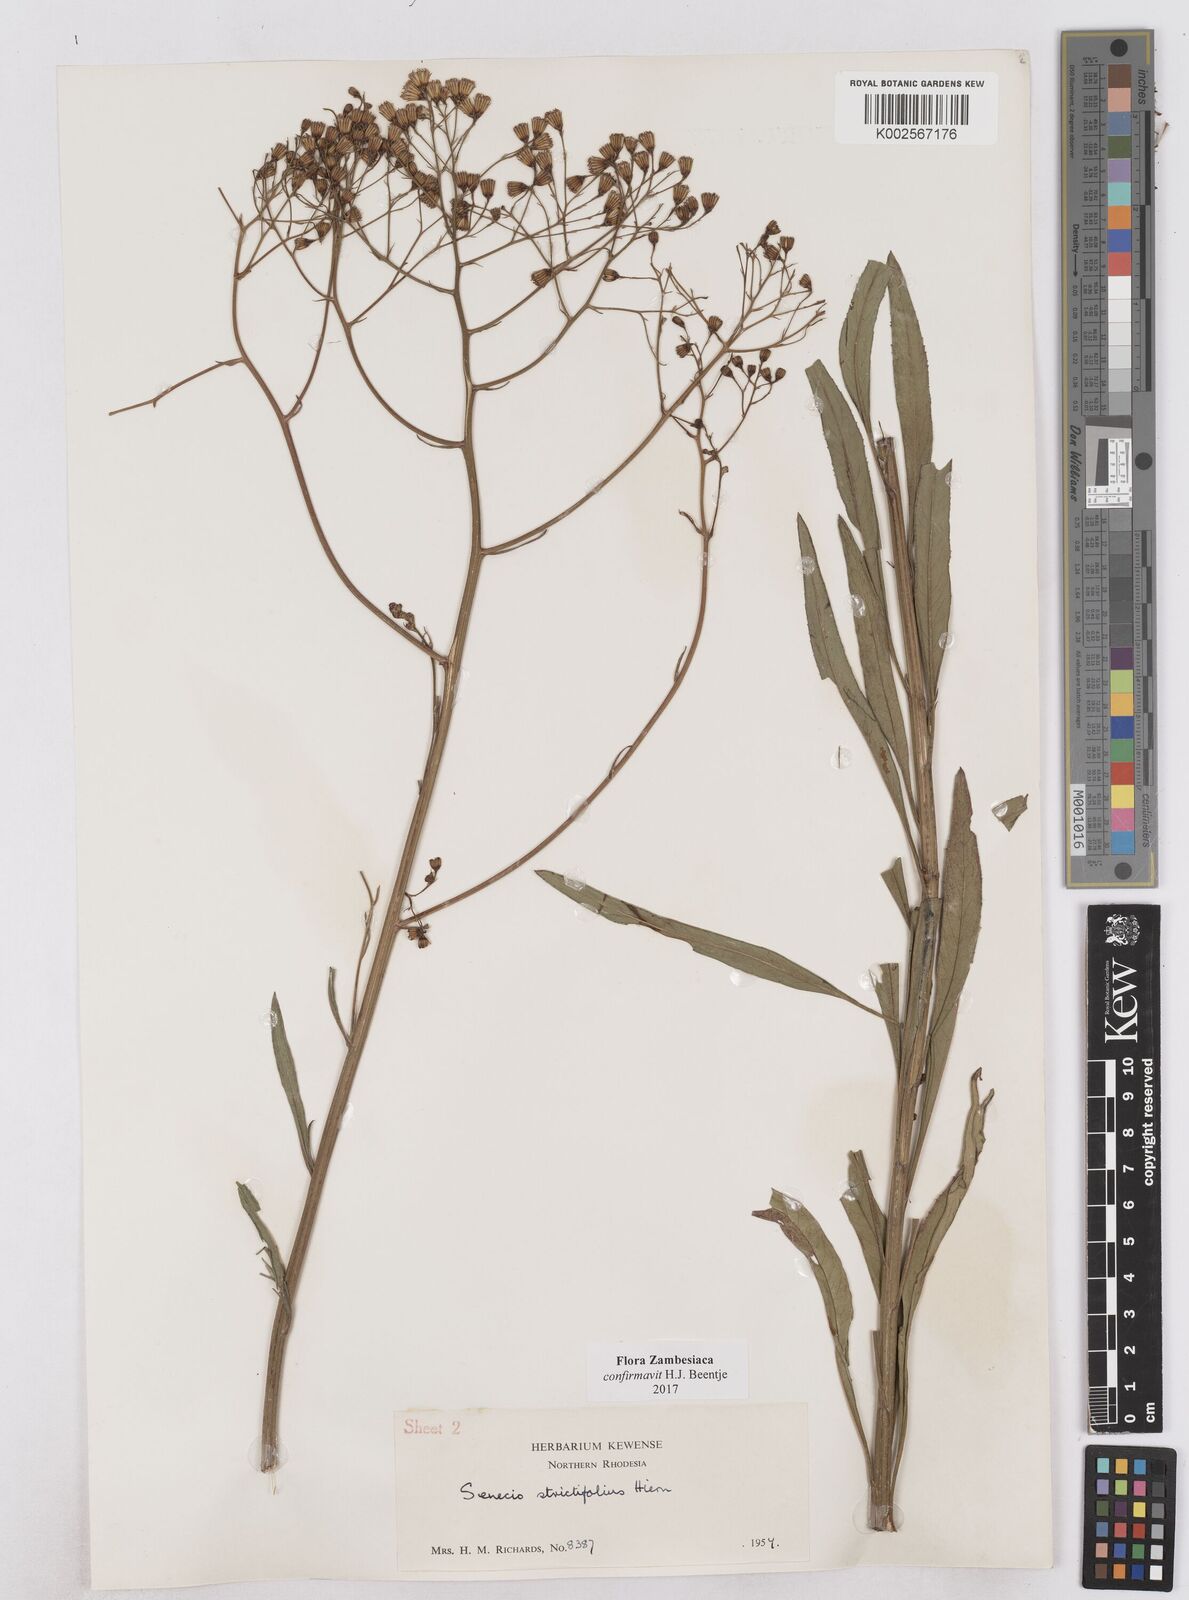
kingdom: Plantae
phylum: Tracheophyta
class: Magnoliopsida
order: Asterales
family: Asteraceae
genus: Senecio
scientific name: Senecio strictifolius
